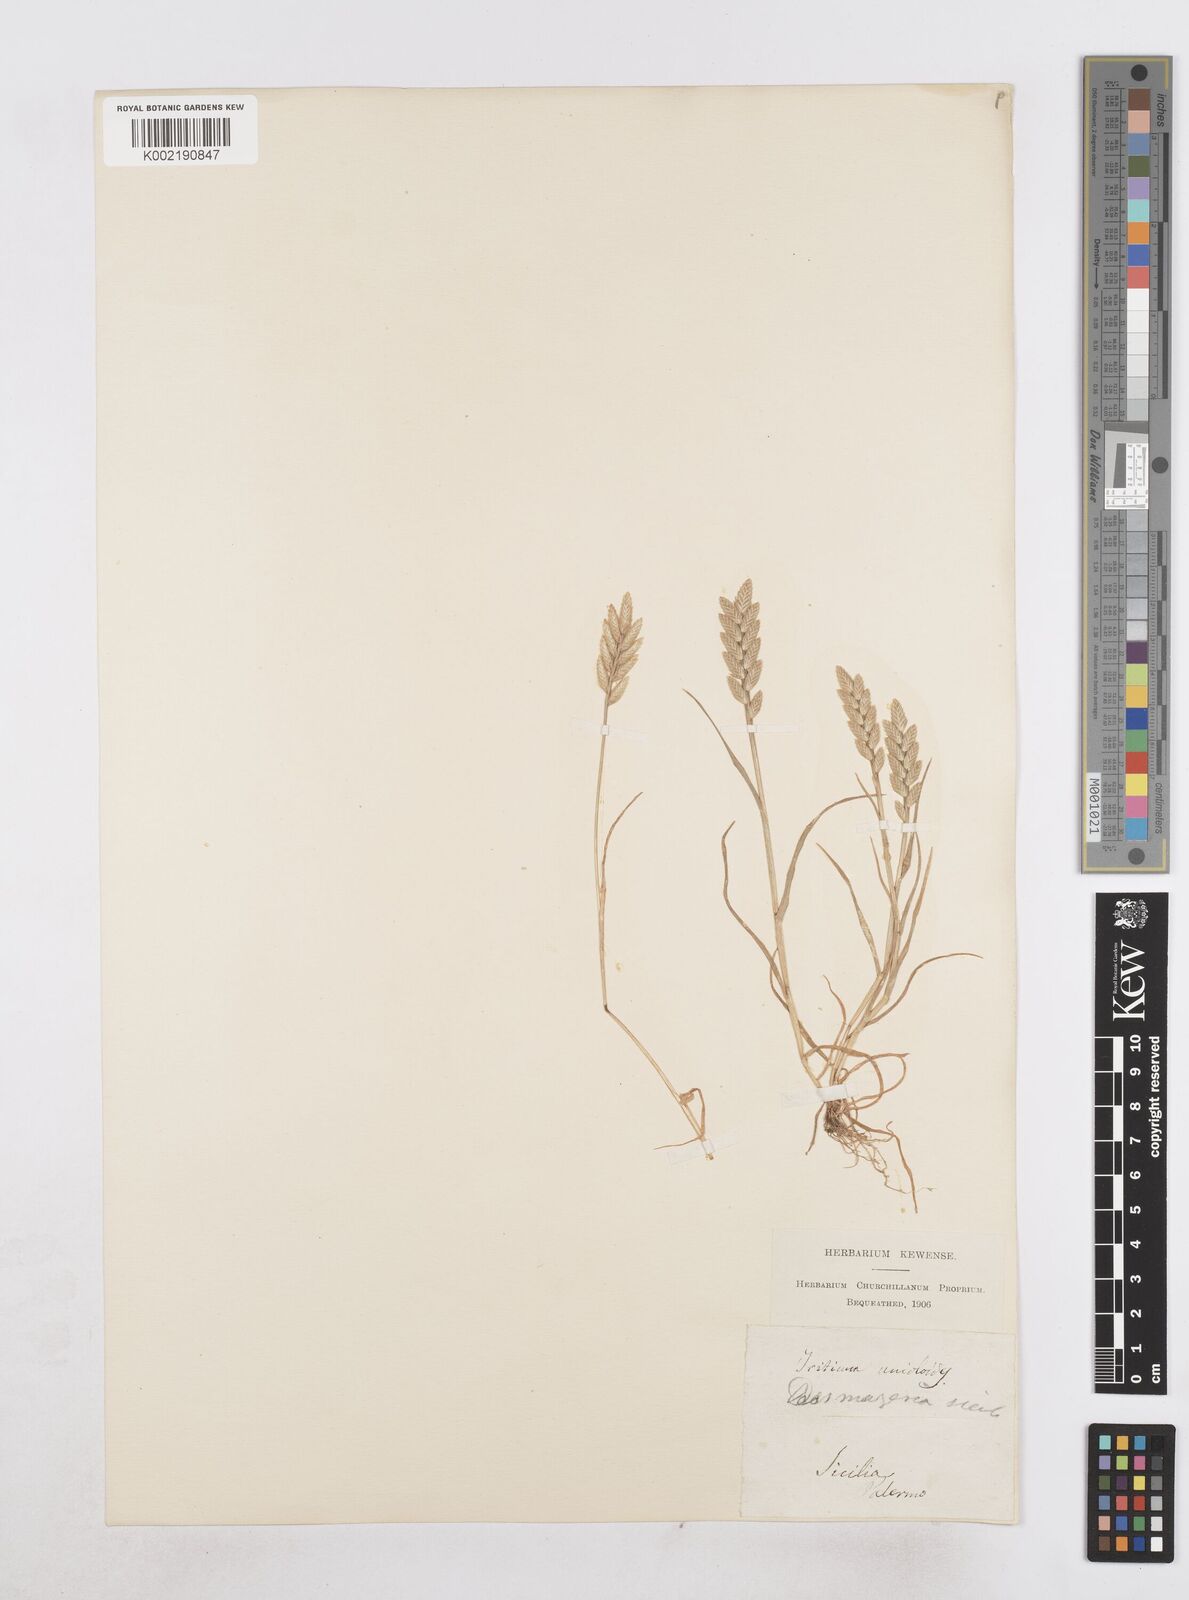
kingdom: Plantae
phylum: Tracheophyta
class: Liliopsida
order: Poales
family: Poaceae
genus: Desmazeria
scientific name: Desmazeria sicula
